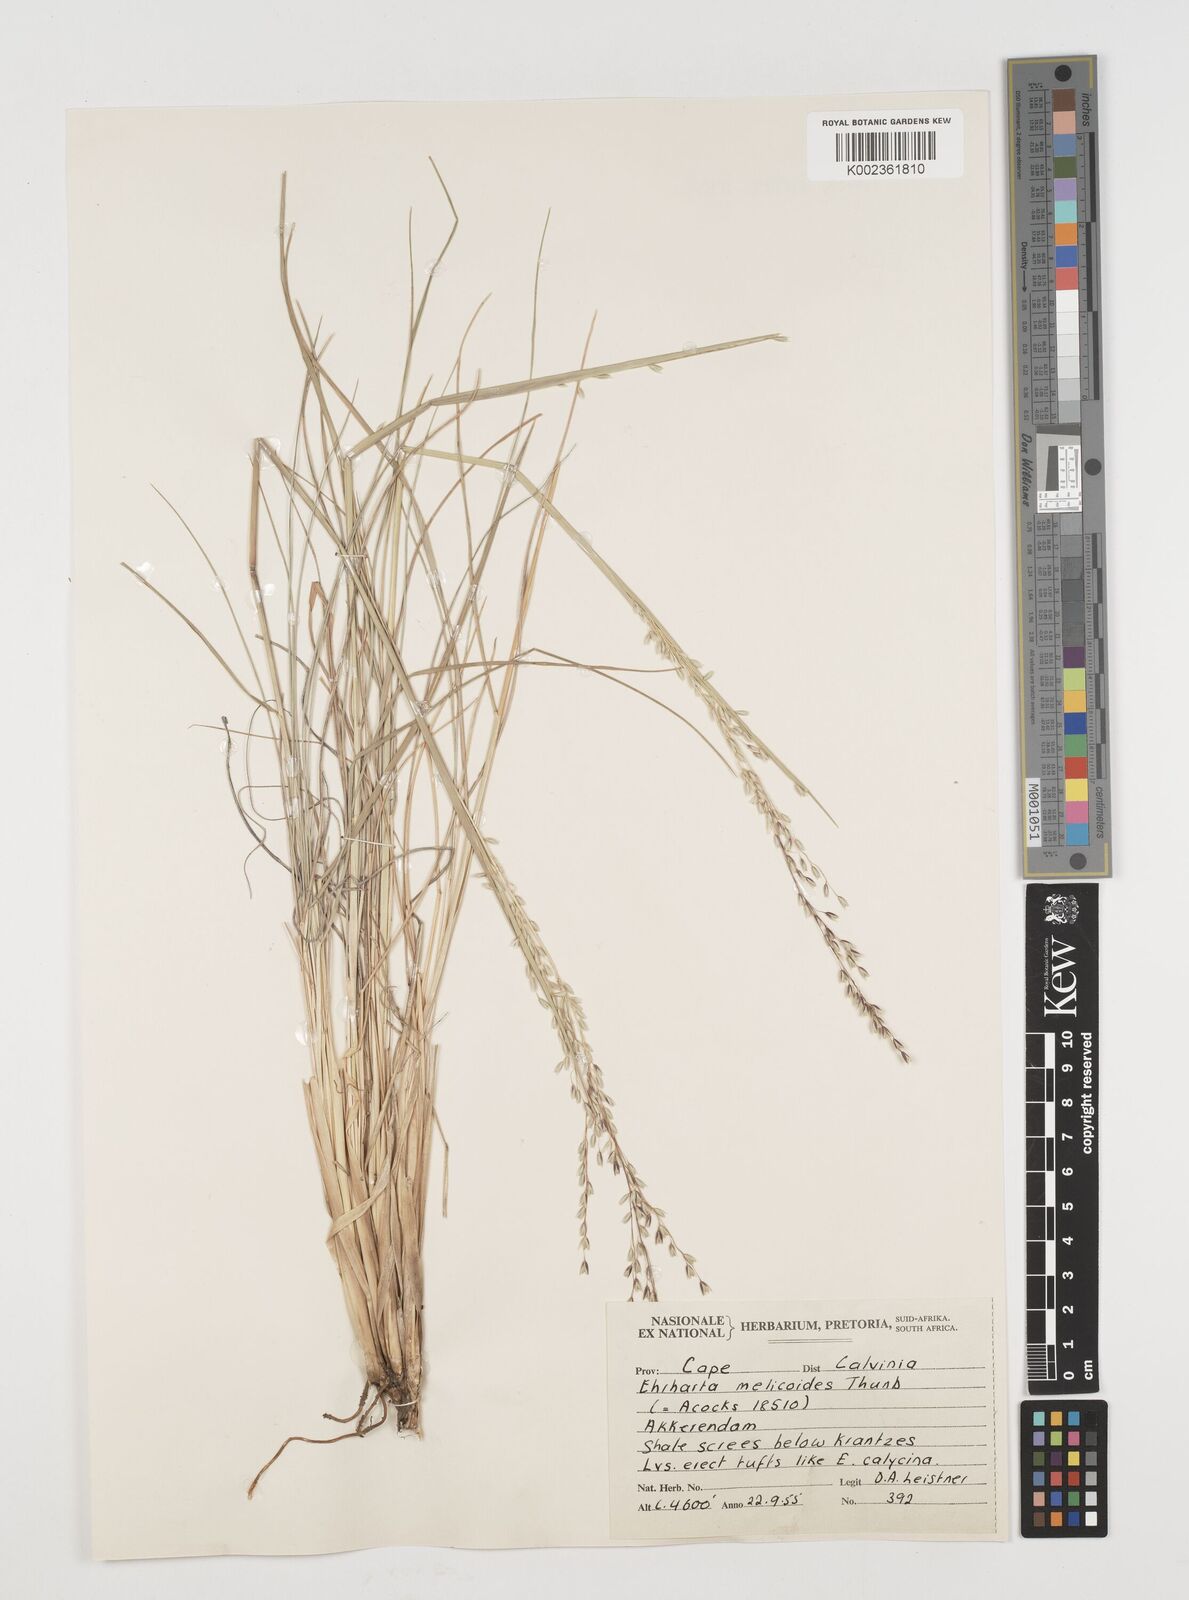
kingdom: Plantae
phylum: Tracheophyta
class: Liliopsida
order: Poales
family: Poaceae
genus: Ehrharta
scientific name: Ehrharta melicoides
